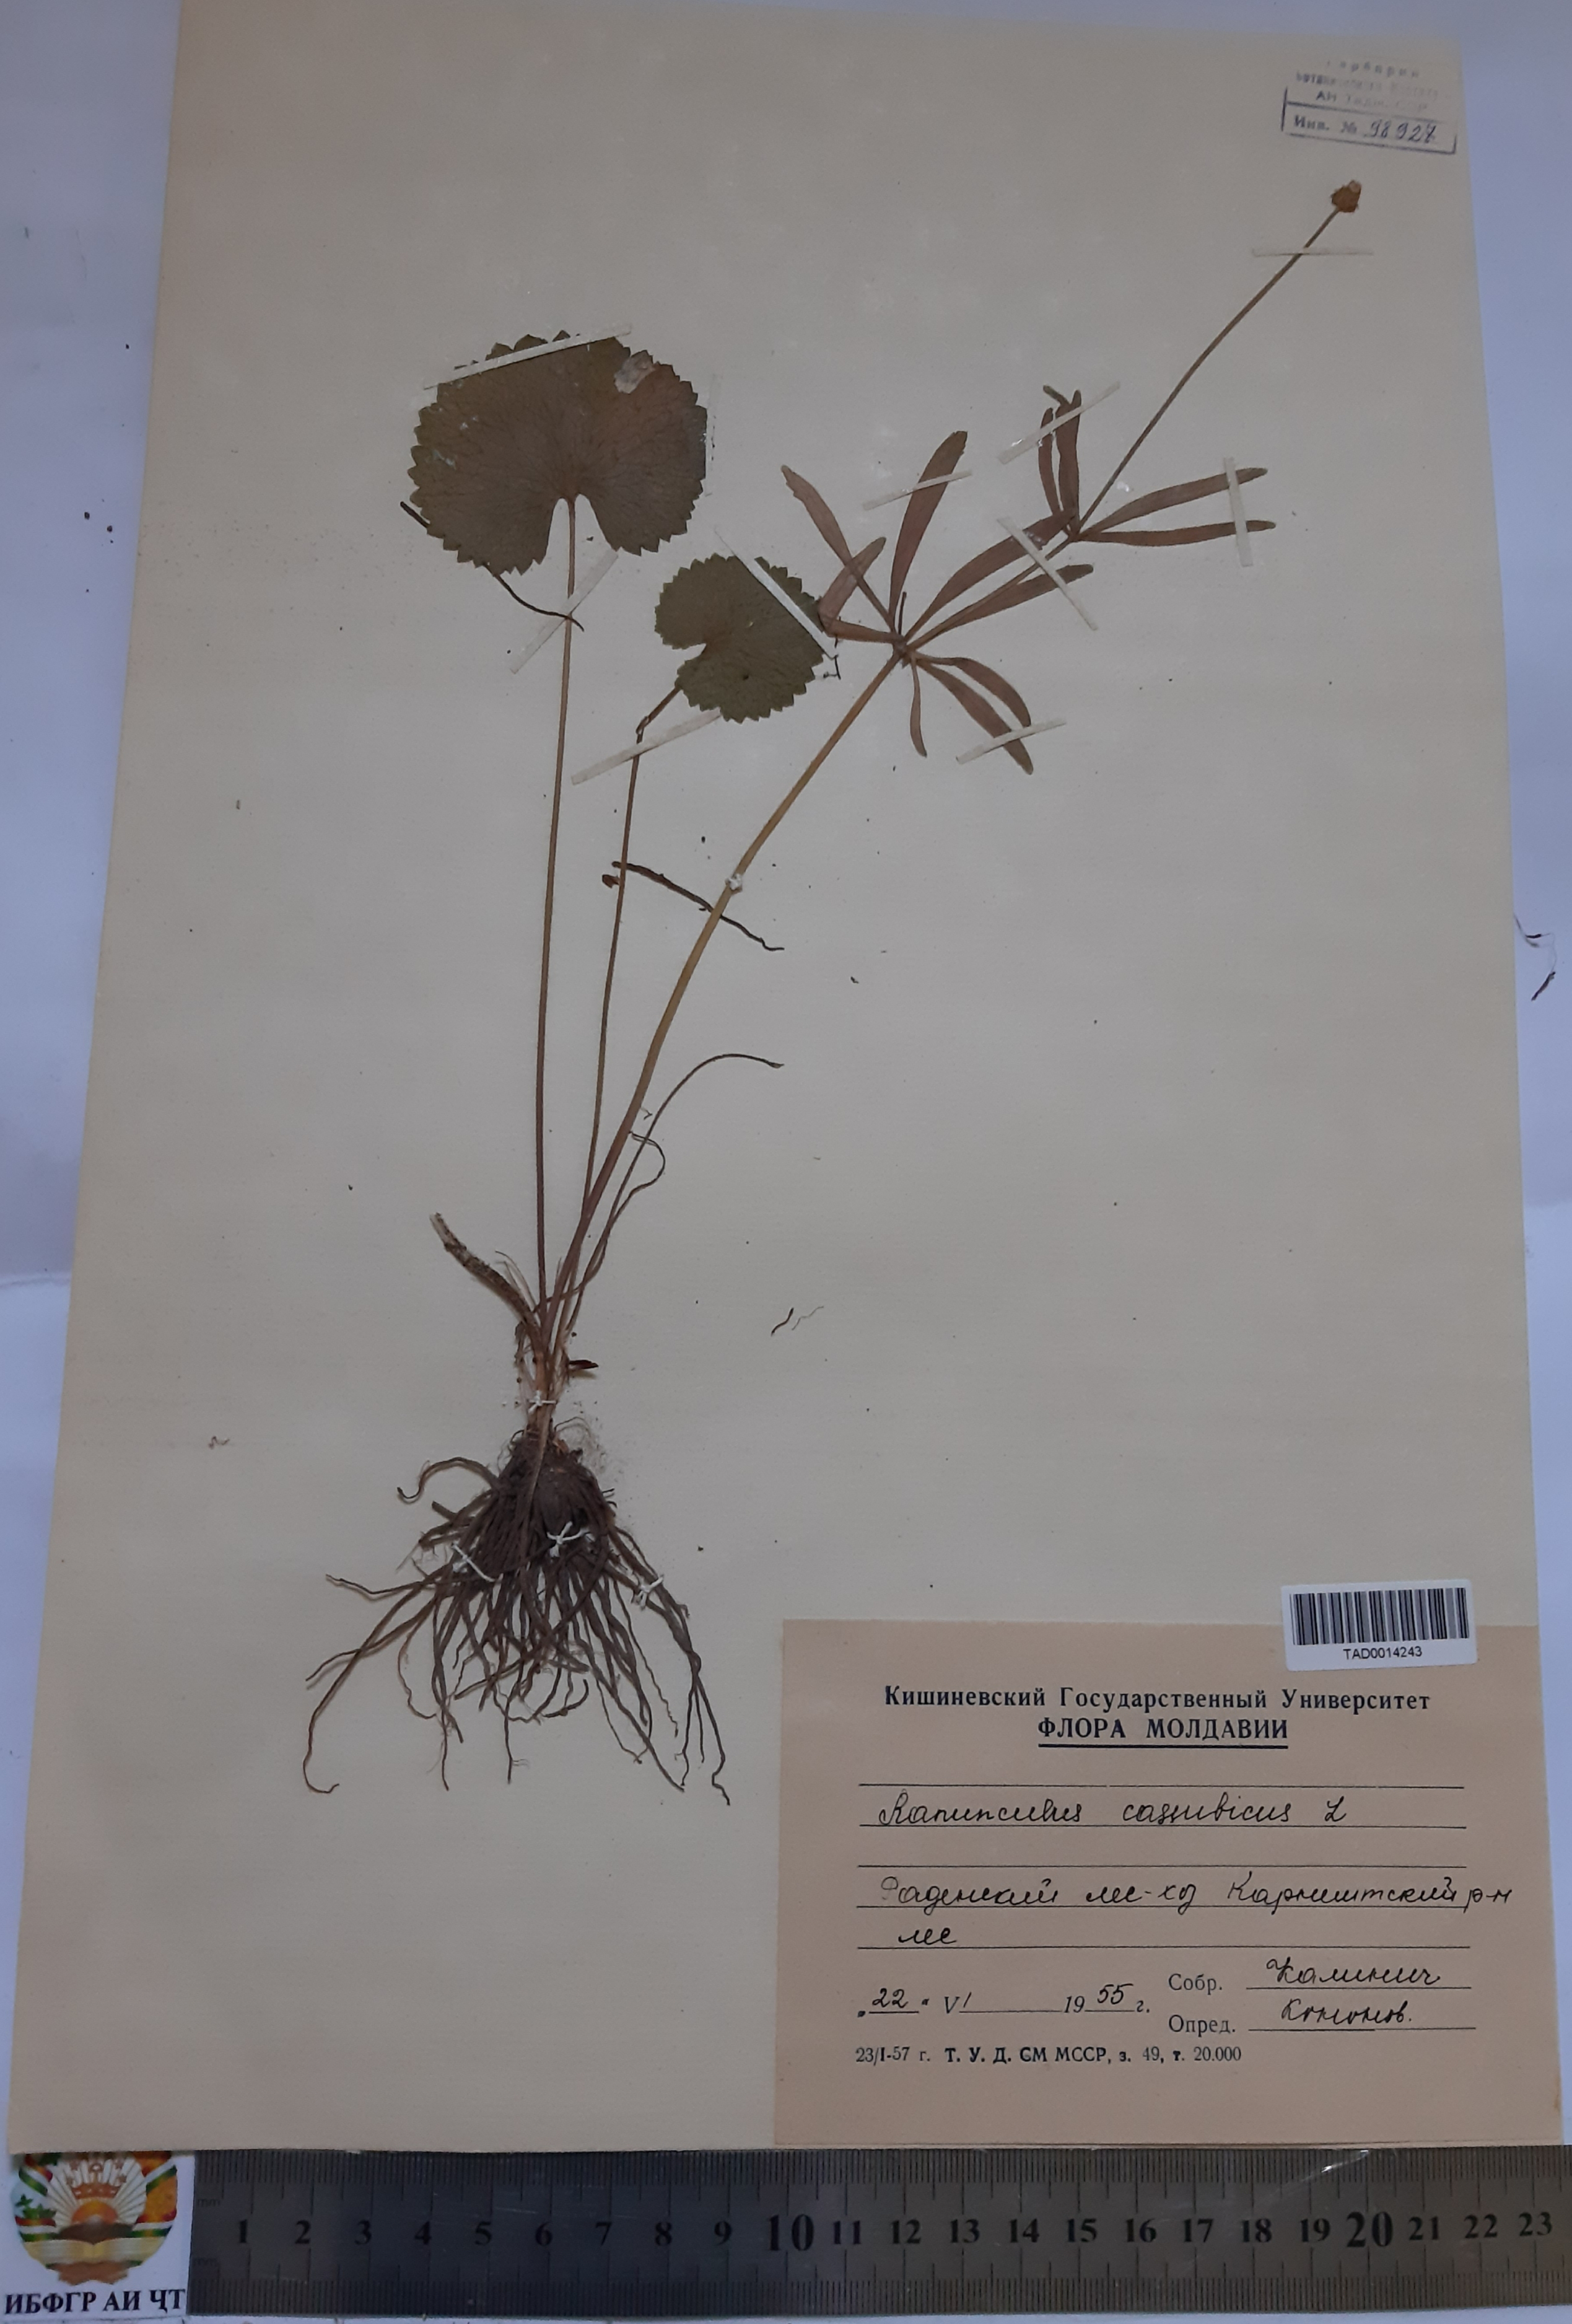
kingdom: Plantae
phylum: Tracheophyta
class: Magnoliopsida
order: Ranunculales
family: Ranunculaceae
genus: Ranunculus
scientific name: Ranunculus cassubicus
